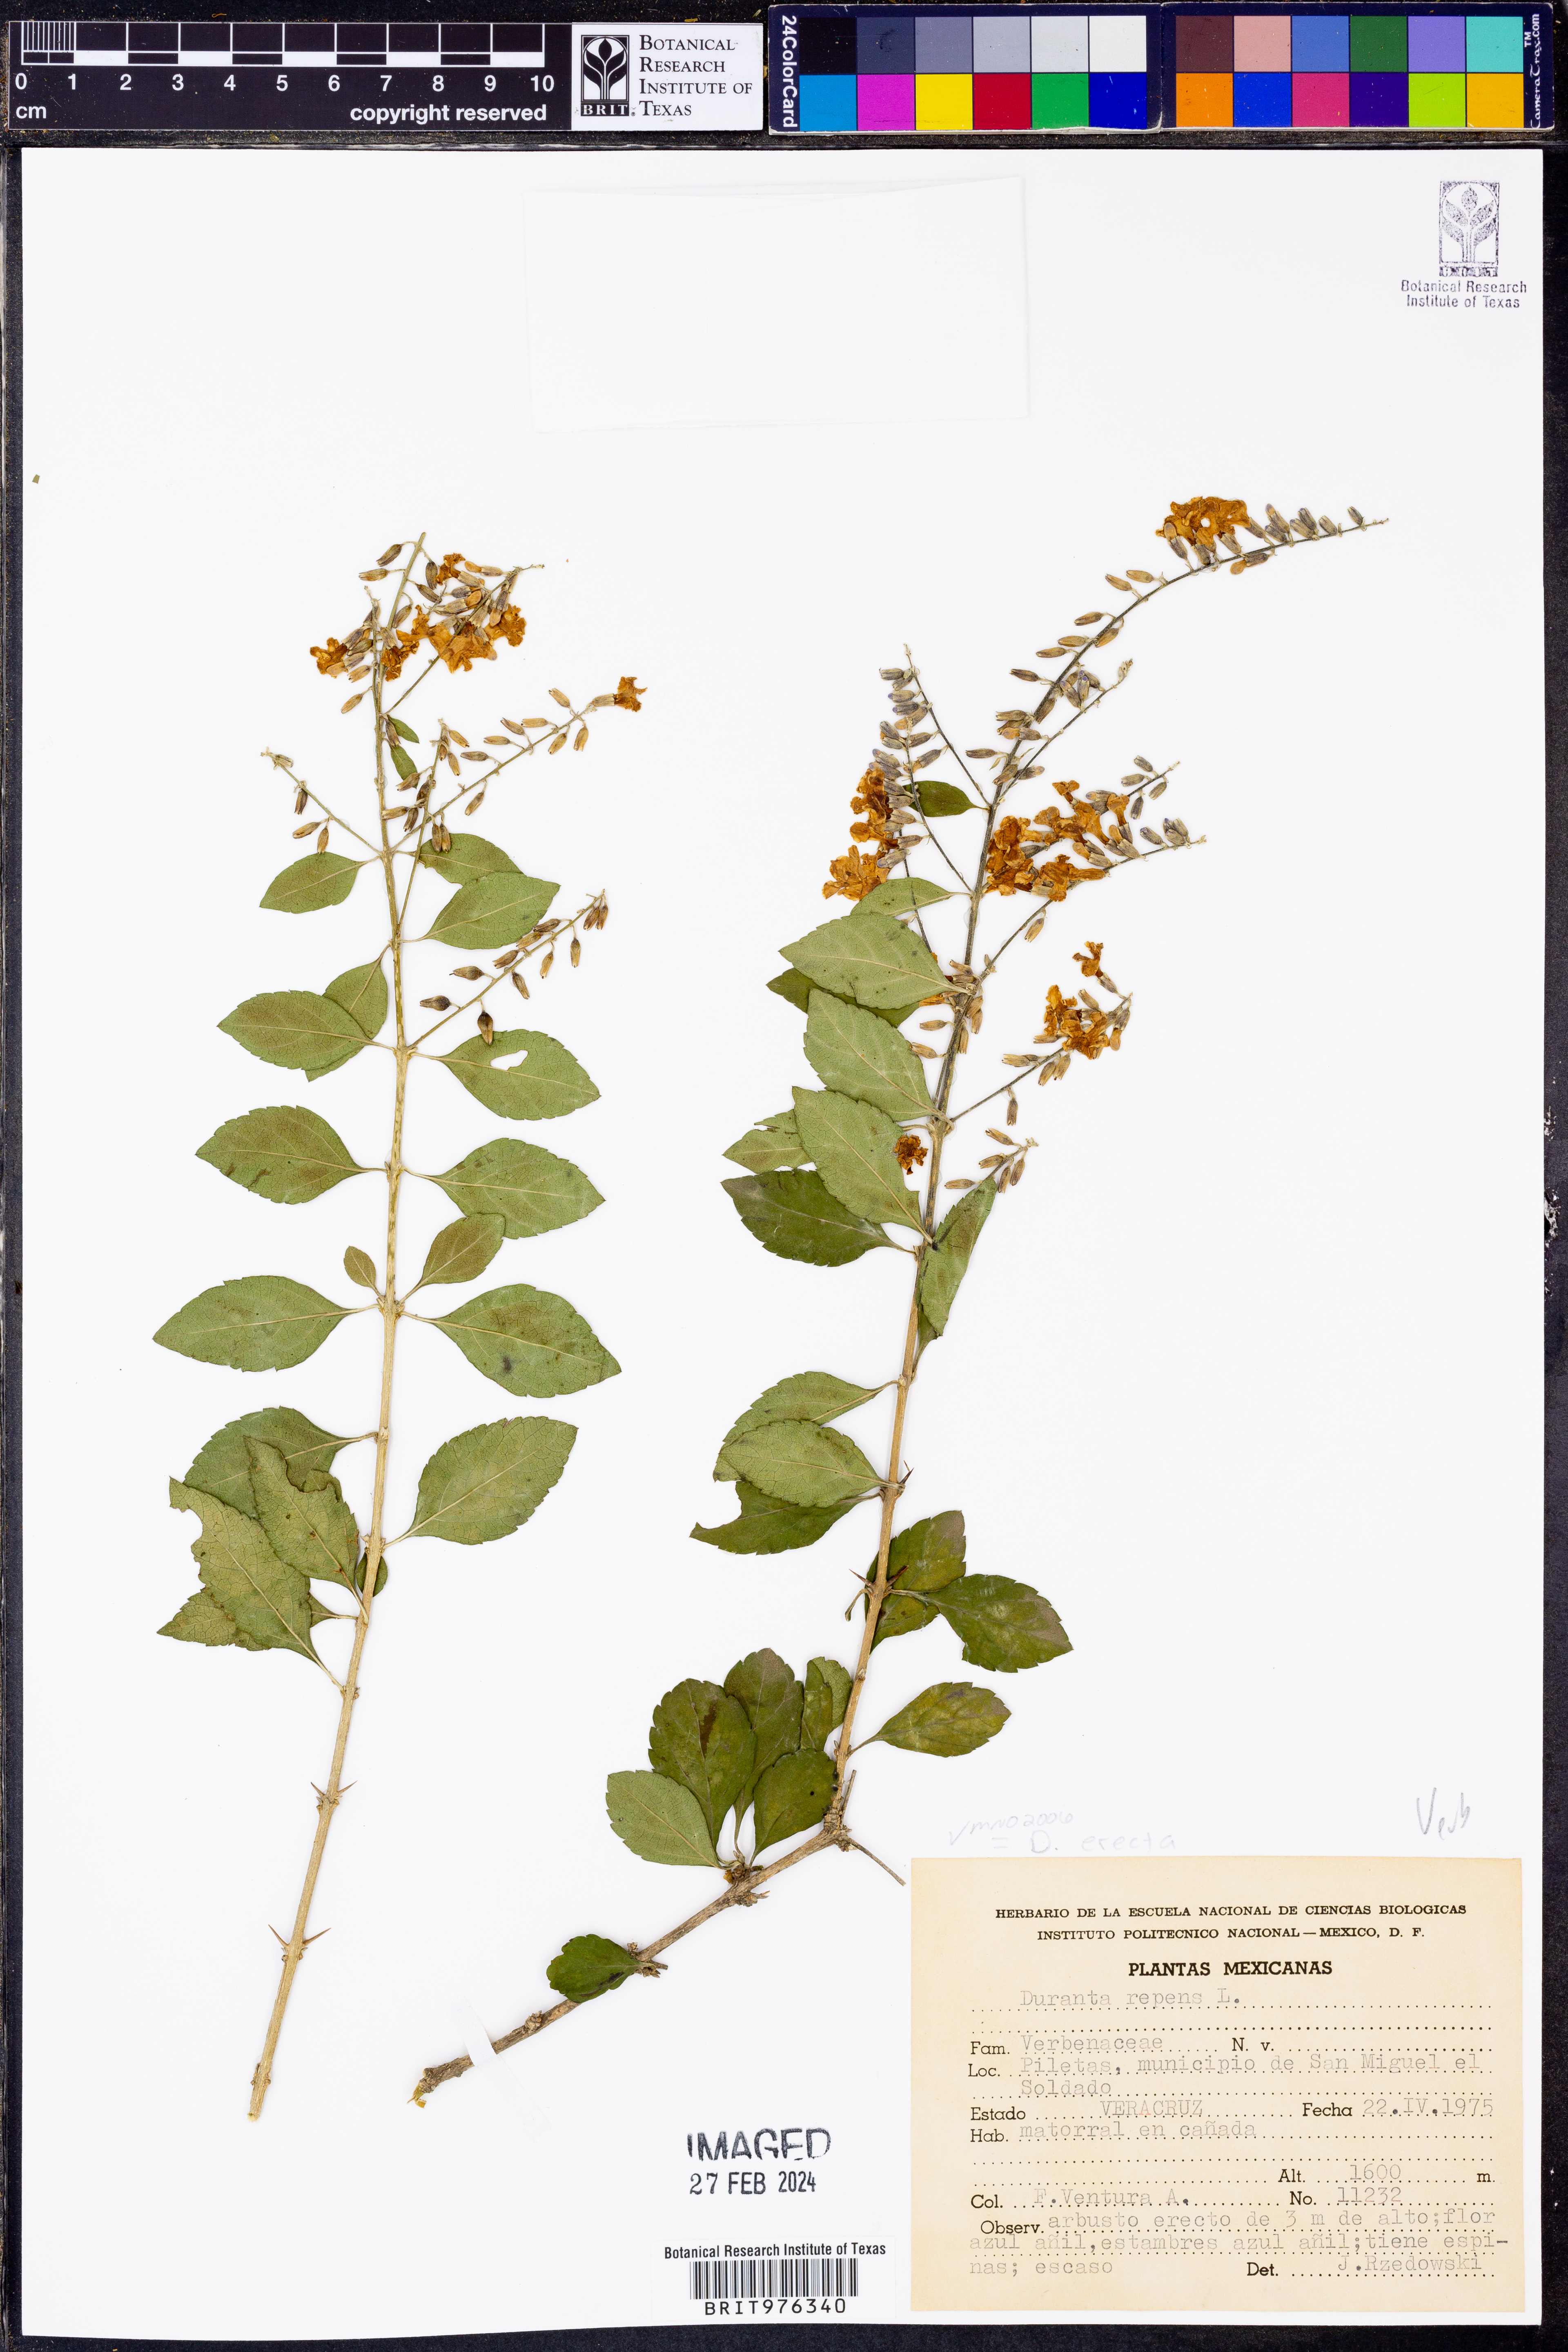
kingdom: Plantae
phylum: Tracheophyta
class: Magnoliopsida
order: Lamiales
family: Verbenaceae
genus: Duranta
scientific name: Duranta
